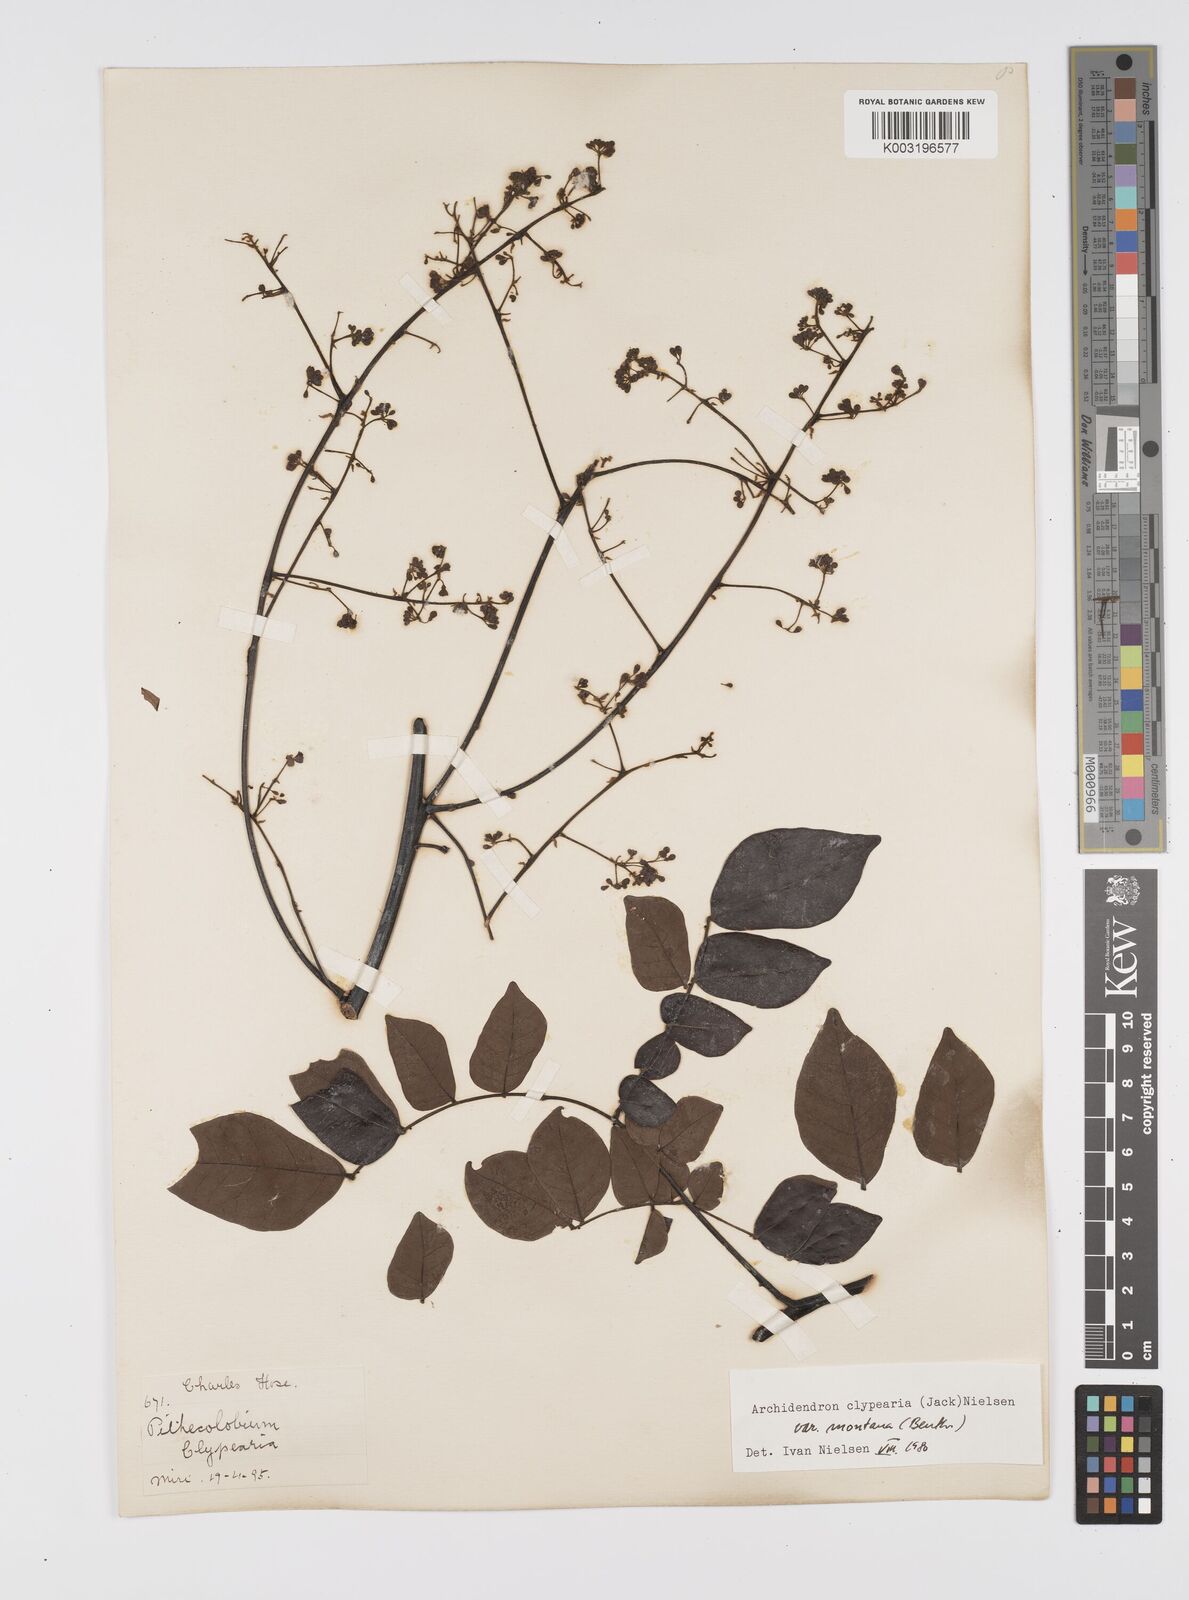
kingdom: Plantae
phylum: Tracheophyta
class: Magnoliopsida
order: Fabales
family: Fabaceae
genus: Archidendron
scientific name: Archidendron clypearia
